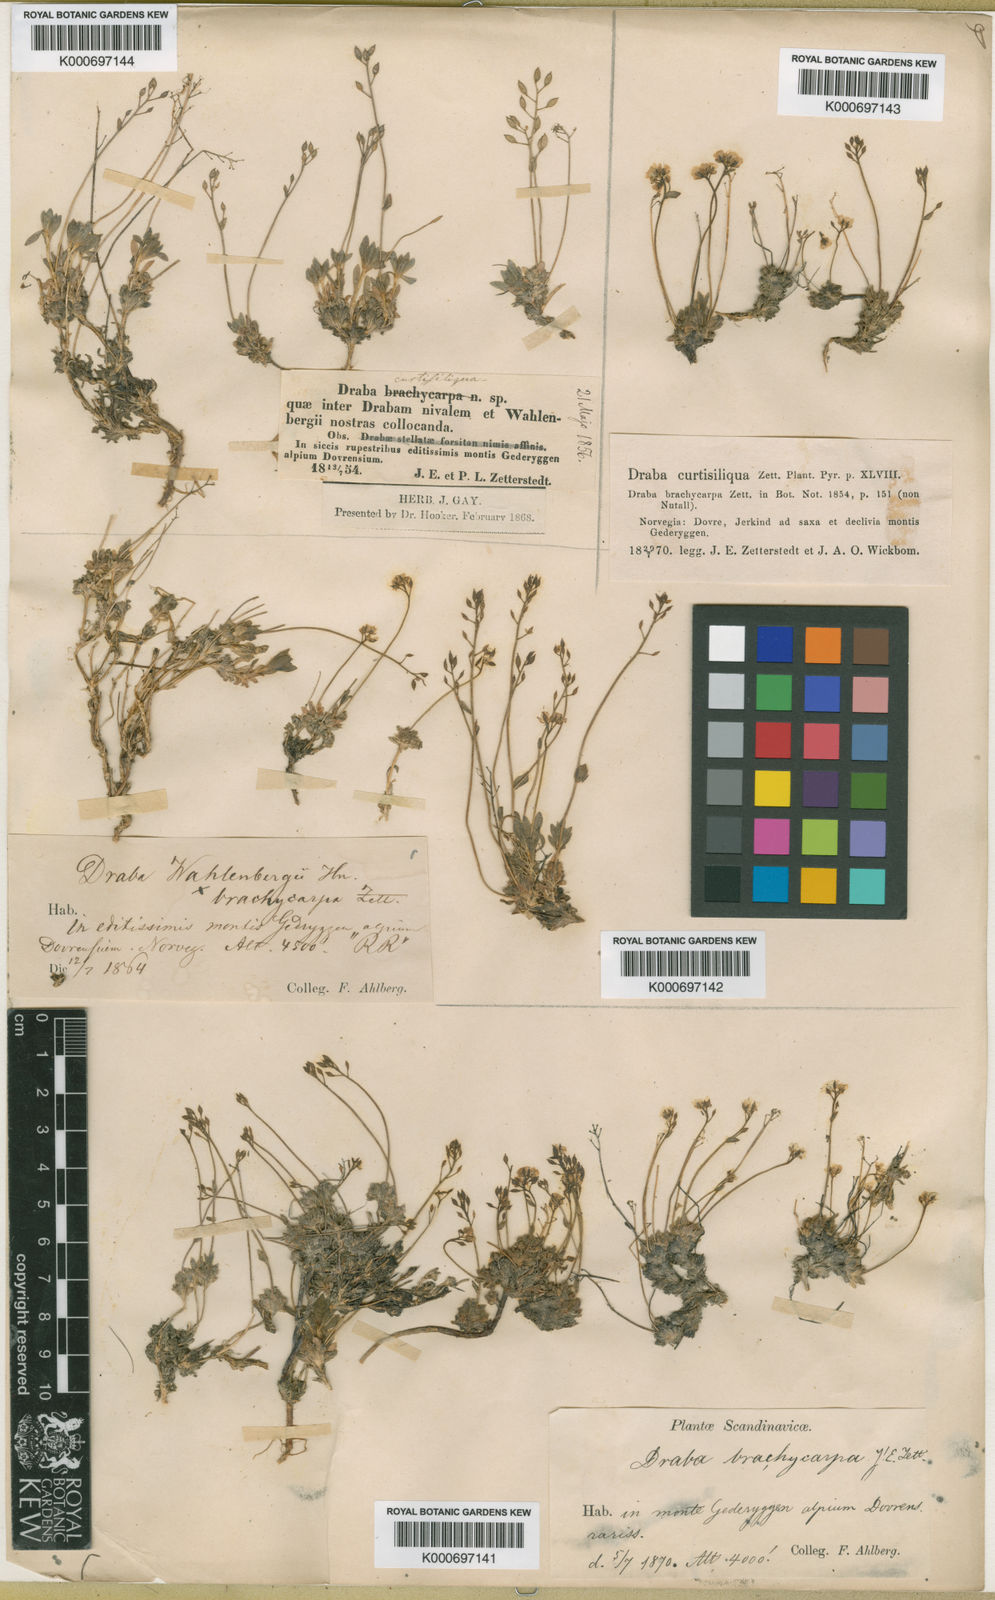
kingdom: Plantae
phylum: Tracheophyta
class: Magnoliopsida
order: Brassicales
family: Brassicaceae
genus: Draba
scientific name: Draba nivalis
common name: Snow draba
